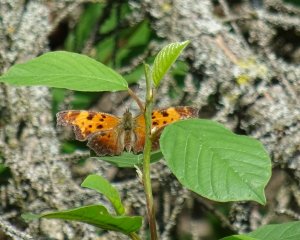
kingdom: Animalia
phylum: Arthropoda
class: Insecta
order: Lepidoptera
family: Nymphalidae
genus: Polygonia
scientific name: Polygonia comma
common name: Eastern Comma
